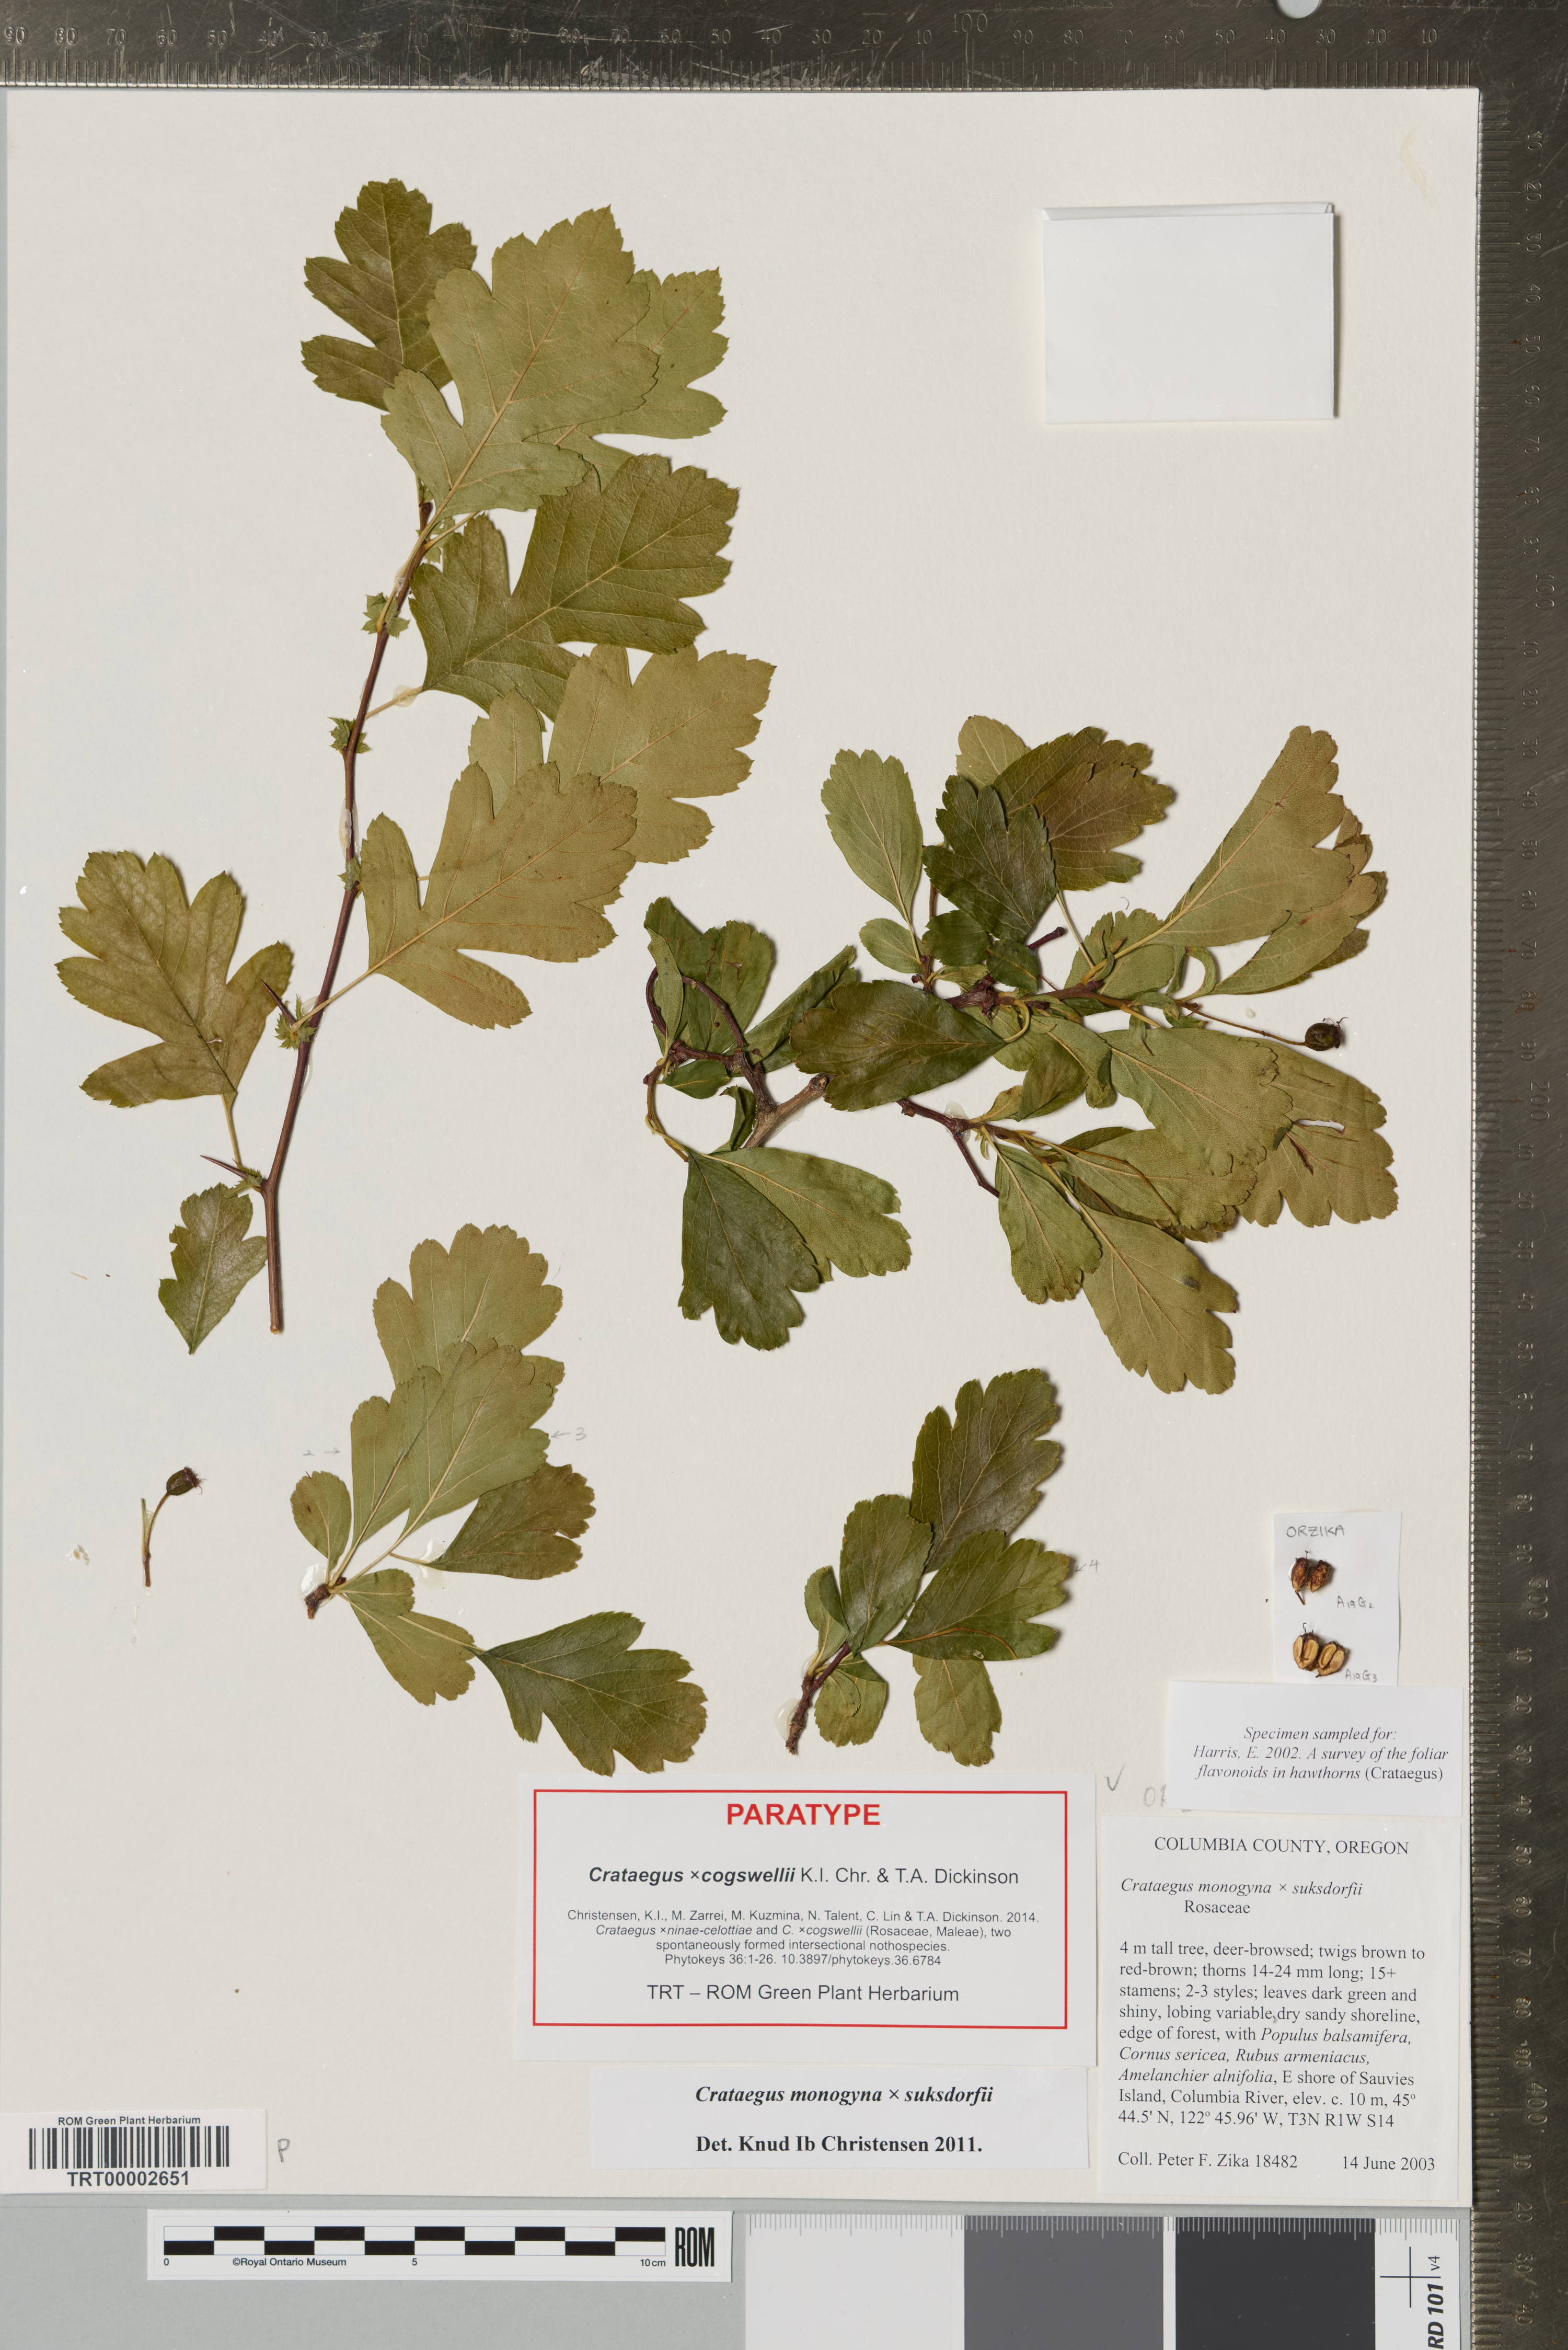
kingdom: Plantae
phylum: Tracheophyta
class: Magnoliopsida
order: Rosales
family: Rosaceae
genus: Crataegus
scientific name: Crataegus
